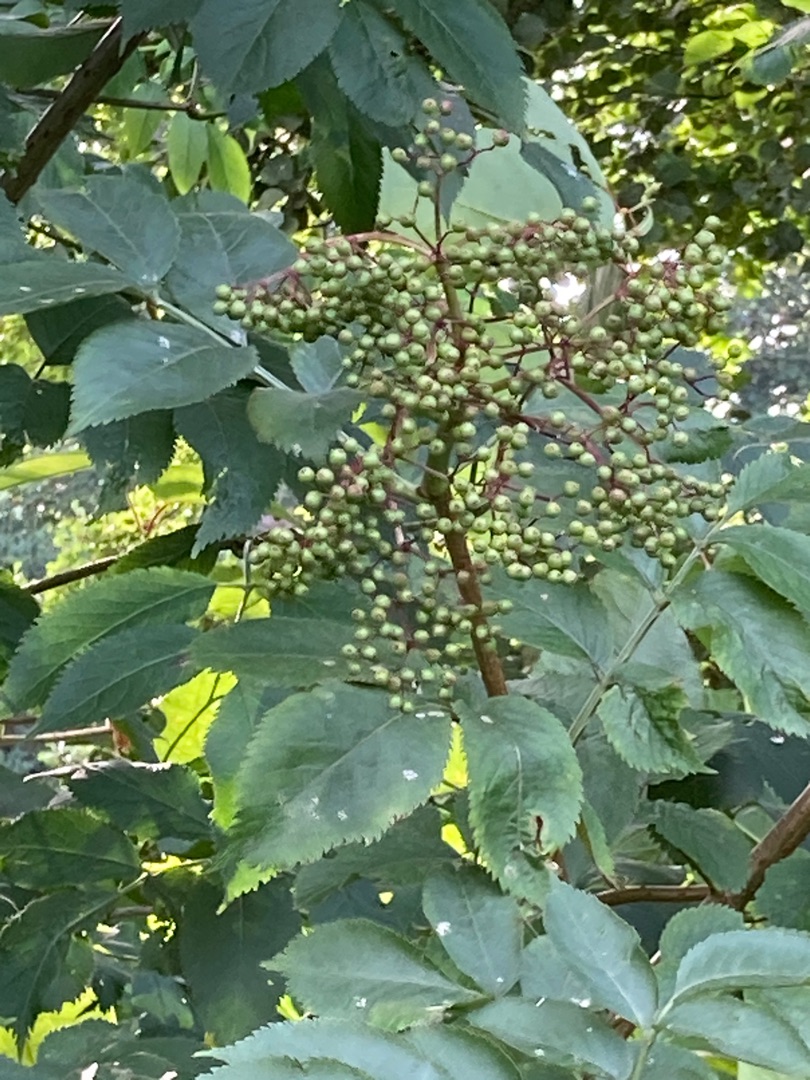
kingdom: Plantae
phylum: Tracheophyta
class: Magnoliopsida
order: Dipsacales
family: Viburnaceae
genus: Sambucus
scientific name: Sambucus nigra
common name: Almindelig hyld
